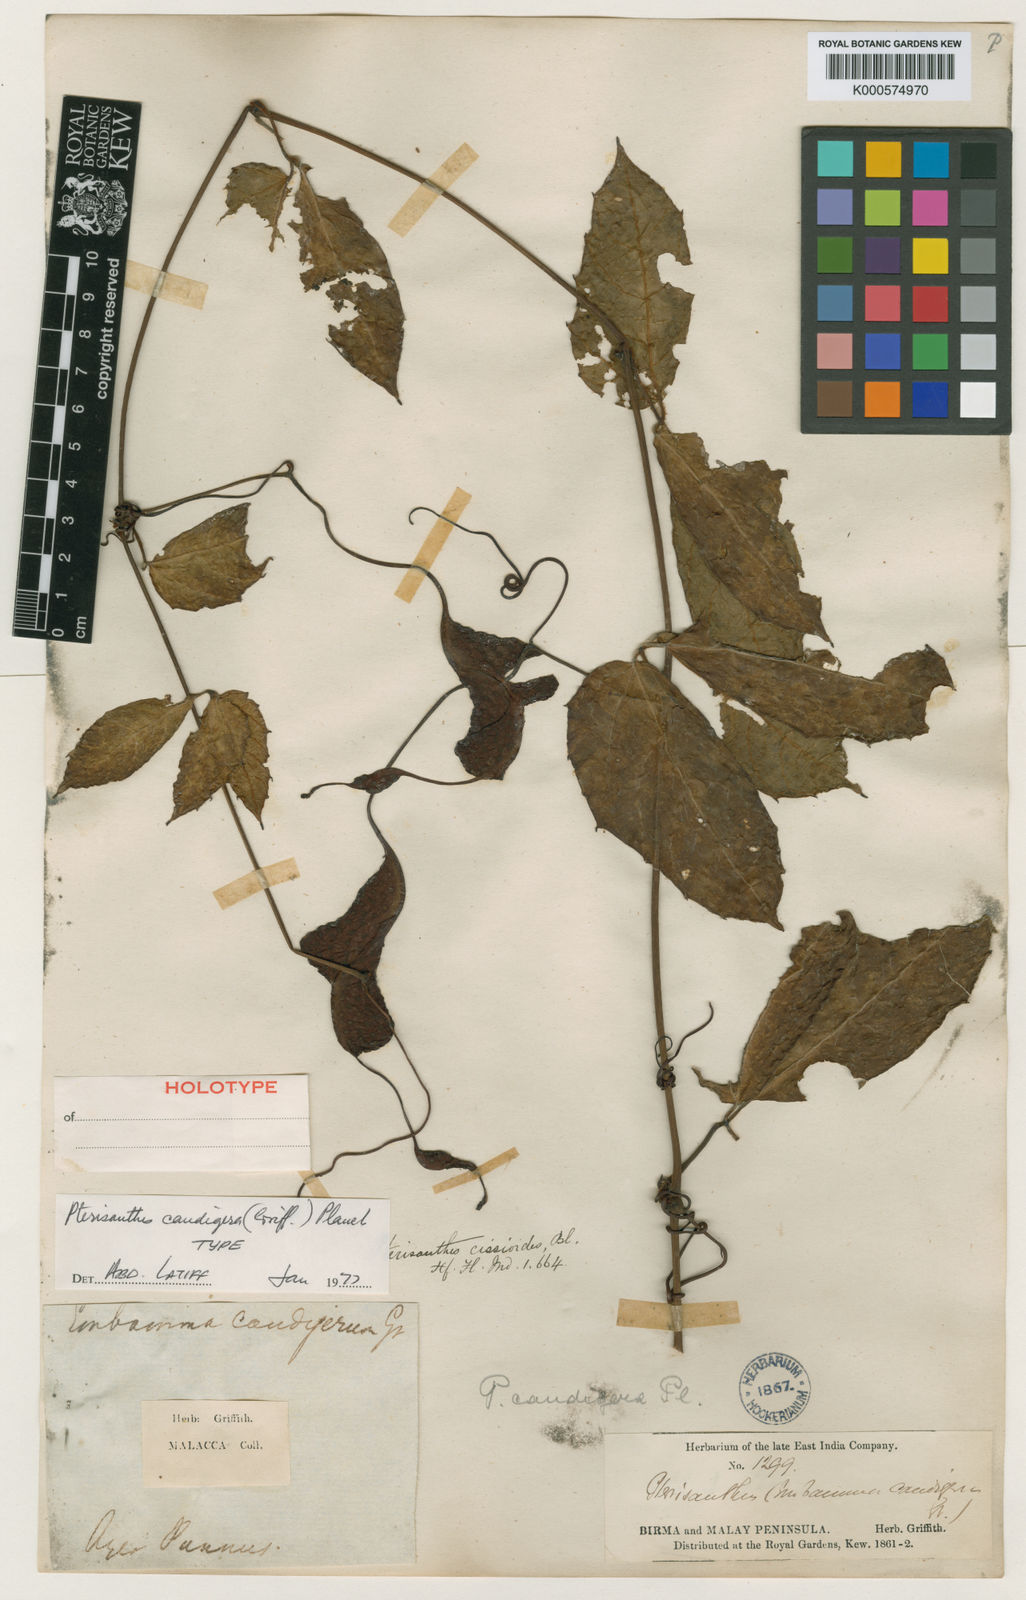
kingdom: Plantae
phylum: Tracheophyta
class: Magnoliopsida
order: Vitales
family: Vitaceae
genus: Pterisanthes
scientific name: Pterisanthes caudigera
